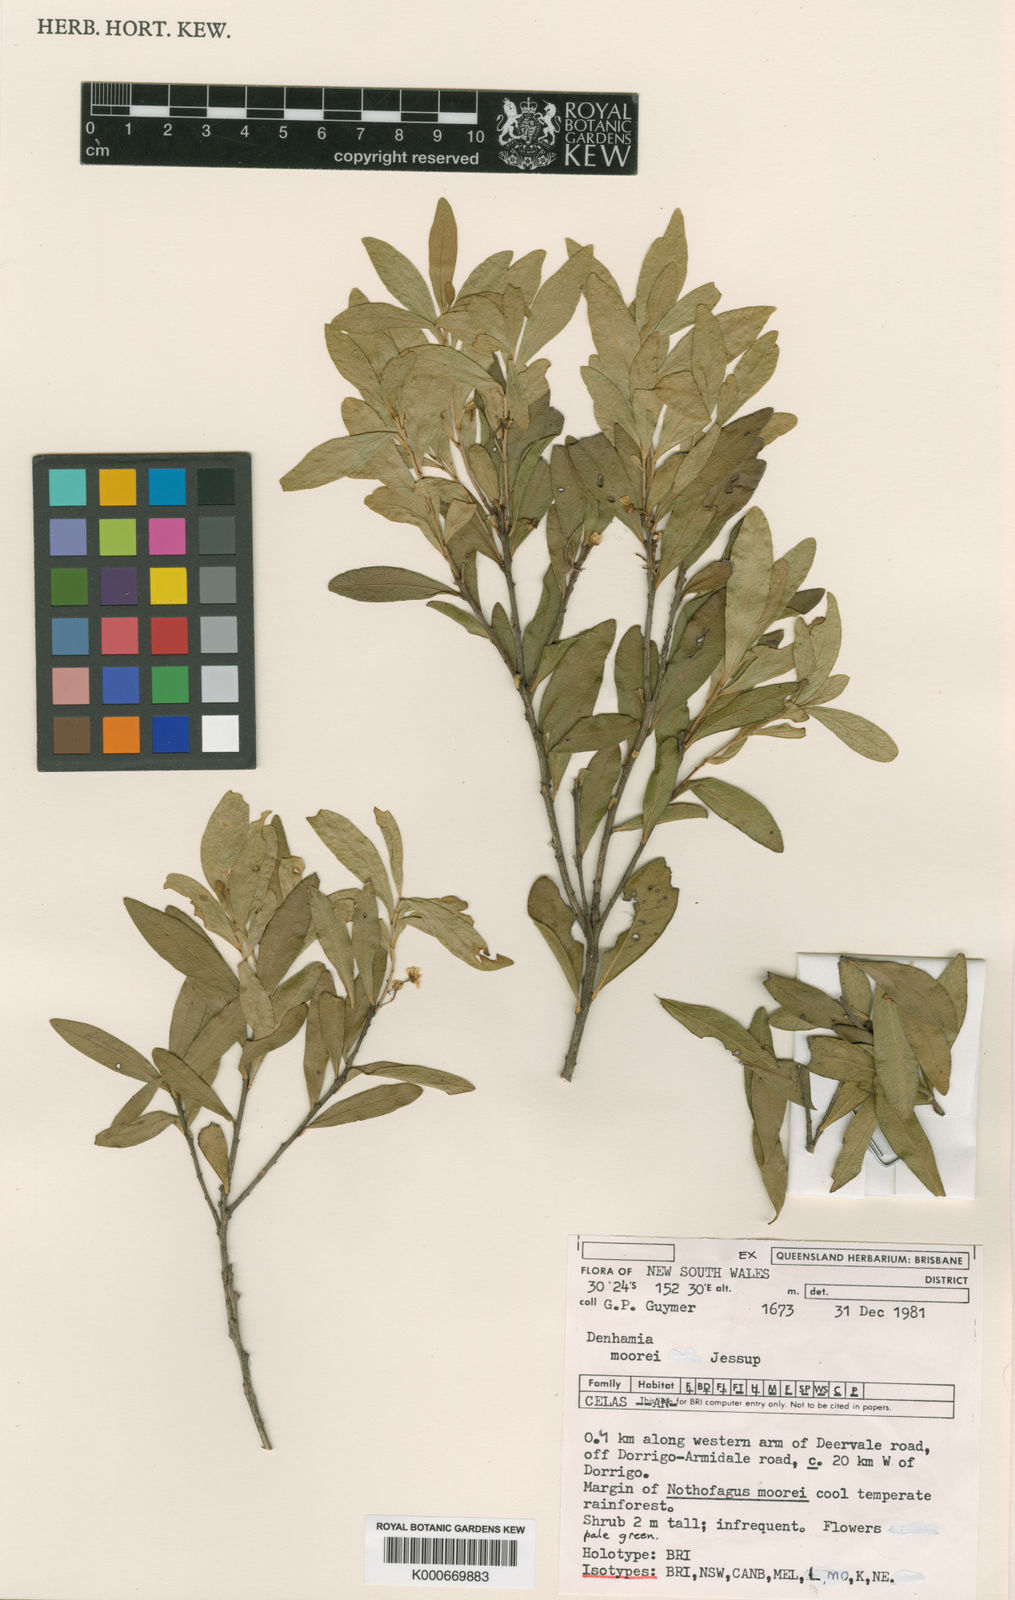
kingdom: Plantae
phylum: Tracheophyta
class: Magnoliopsida
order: Celastrales
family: Celastraceae
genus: Denhamia
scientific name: Denhamia moorei
